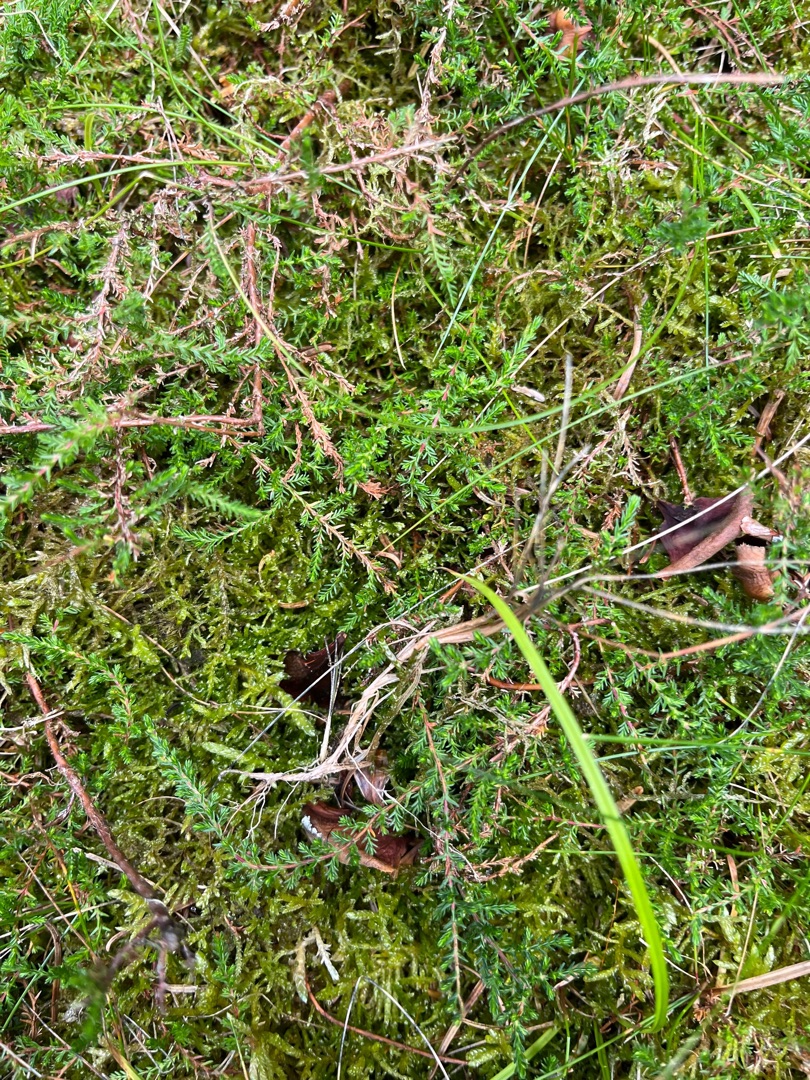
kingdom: Plantae
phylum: Tracheophyta
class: Magnoliopsida
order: Ericales
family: Ericaceae
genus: Calluna
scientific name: Calluna vulgaris
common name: Hedelyng
